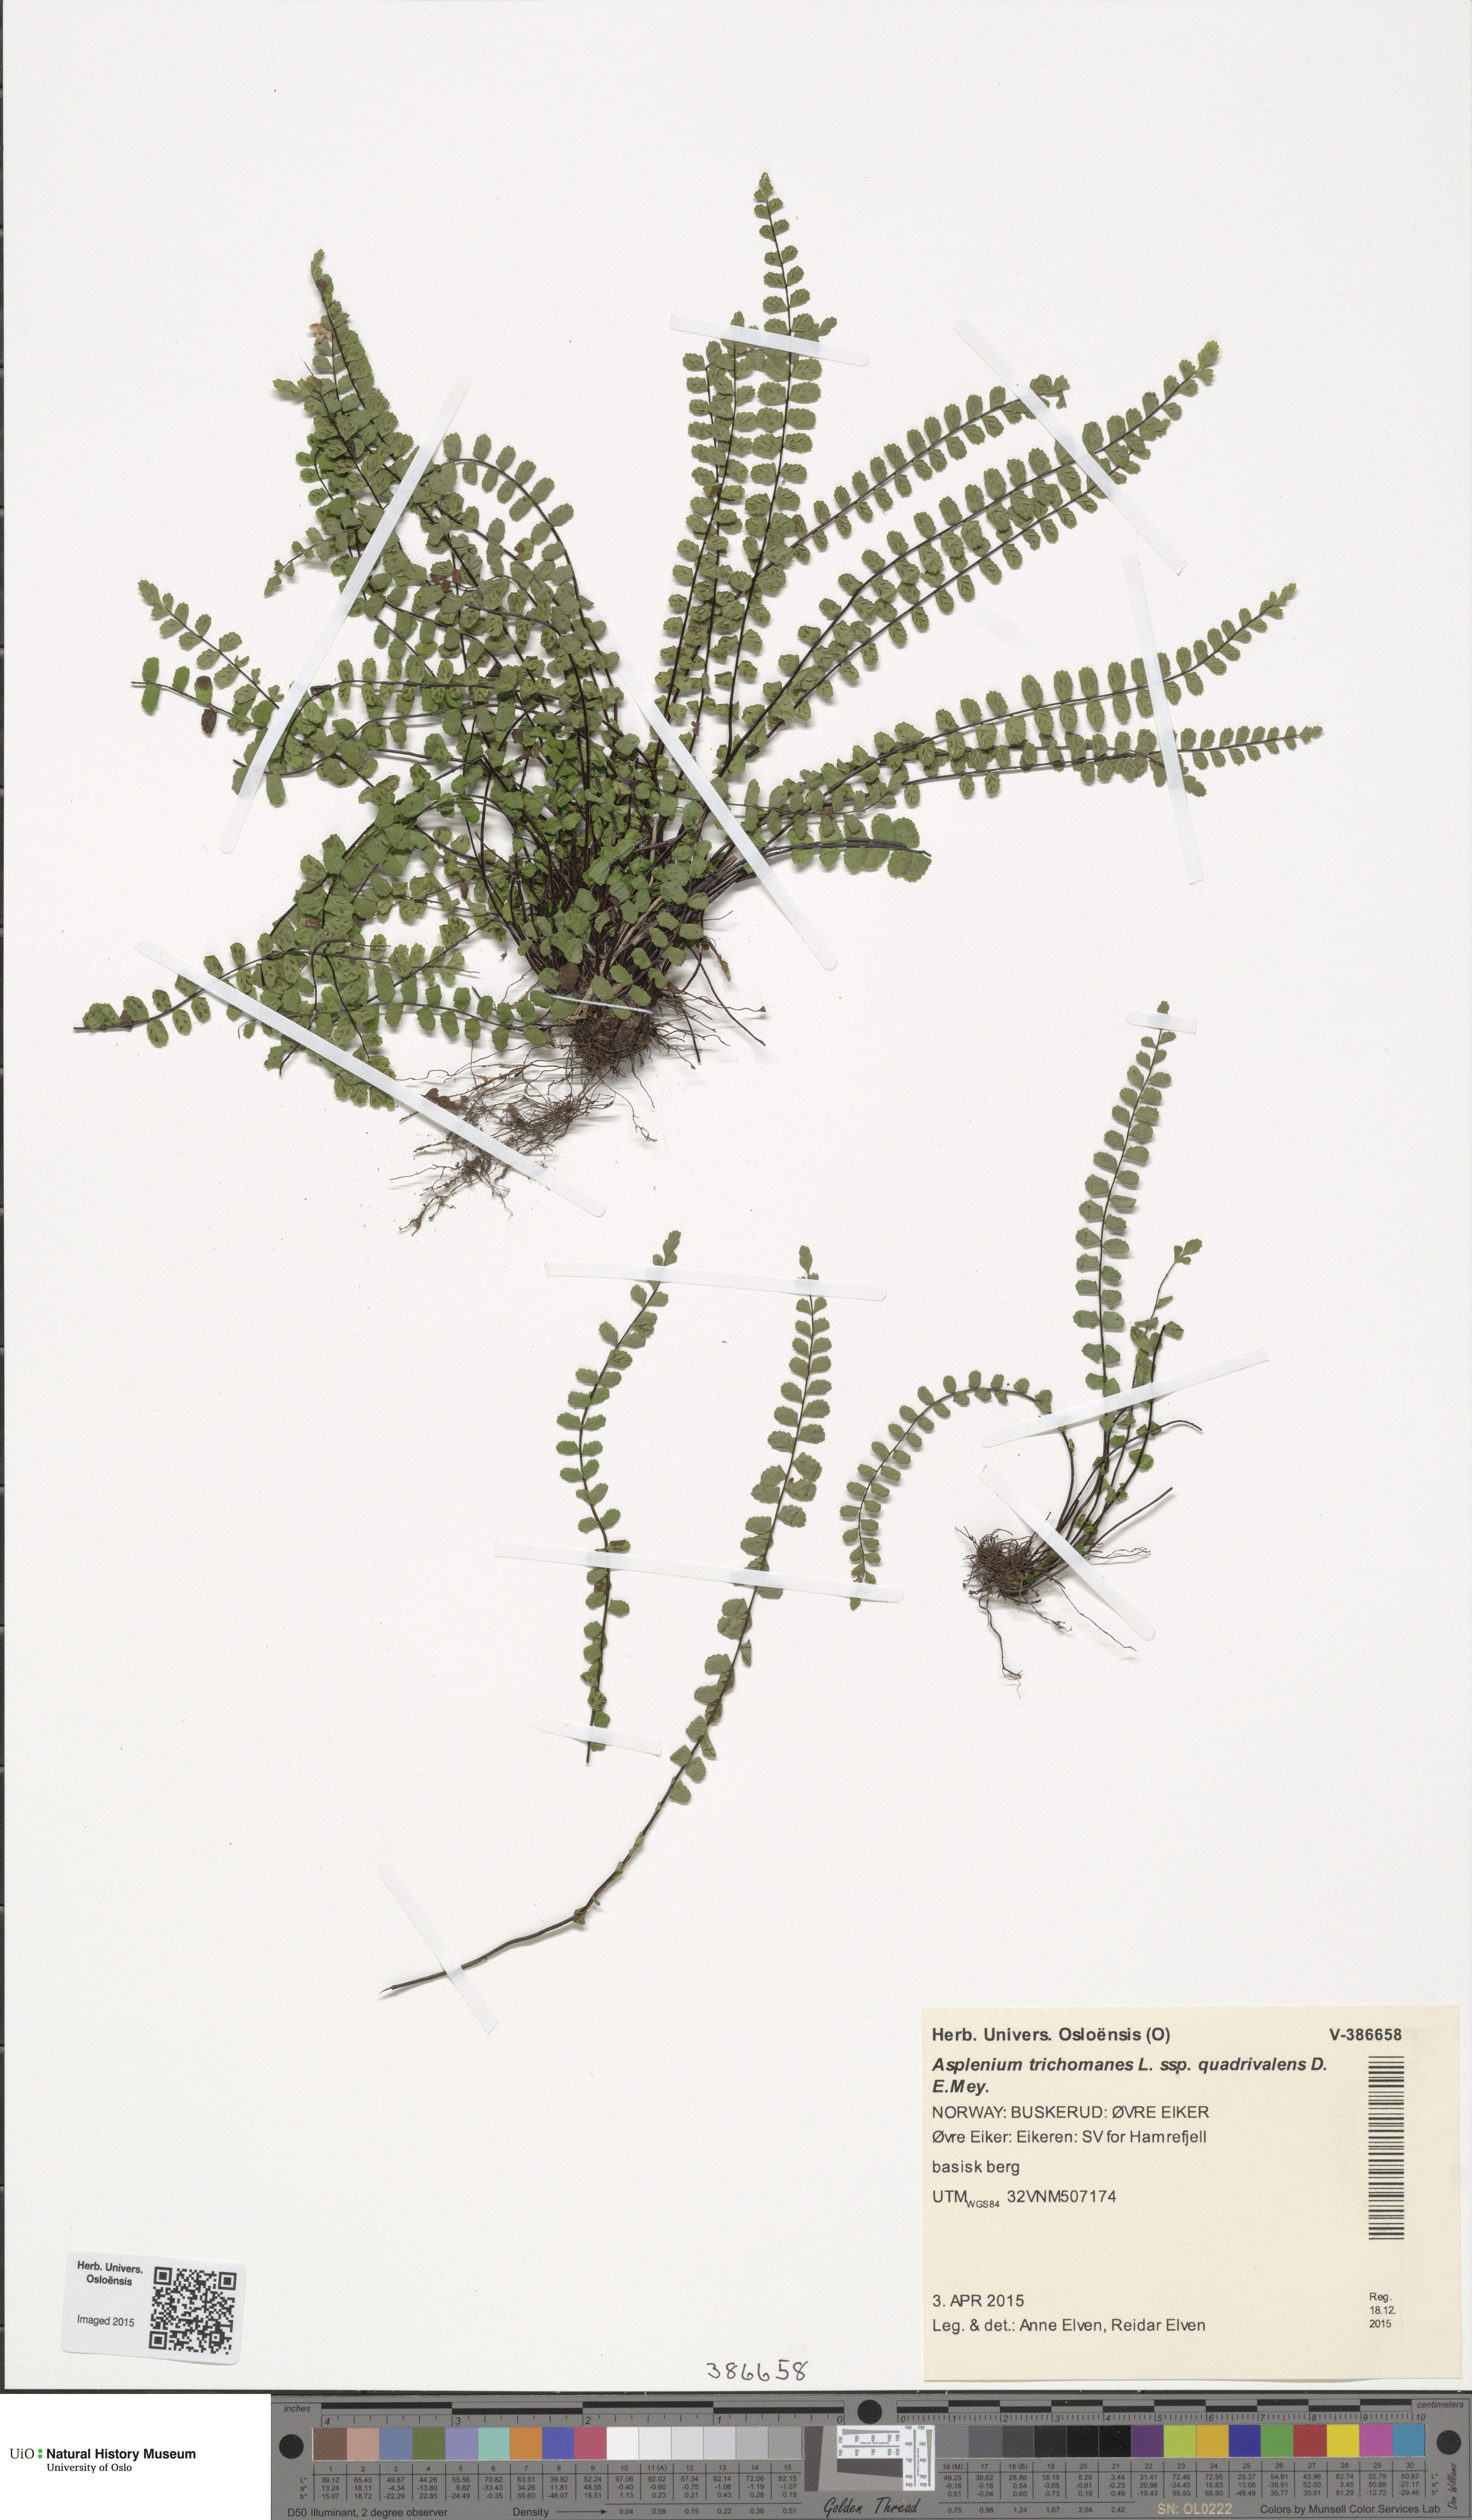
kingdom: Plantae
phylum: Tracheophyta
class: Polypodiopsida
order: Polypodiales
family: Aspleniaceae
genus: Asplenium
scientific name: Asplenium quadrivalens
